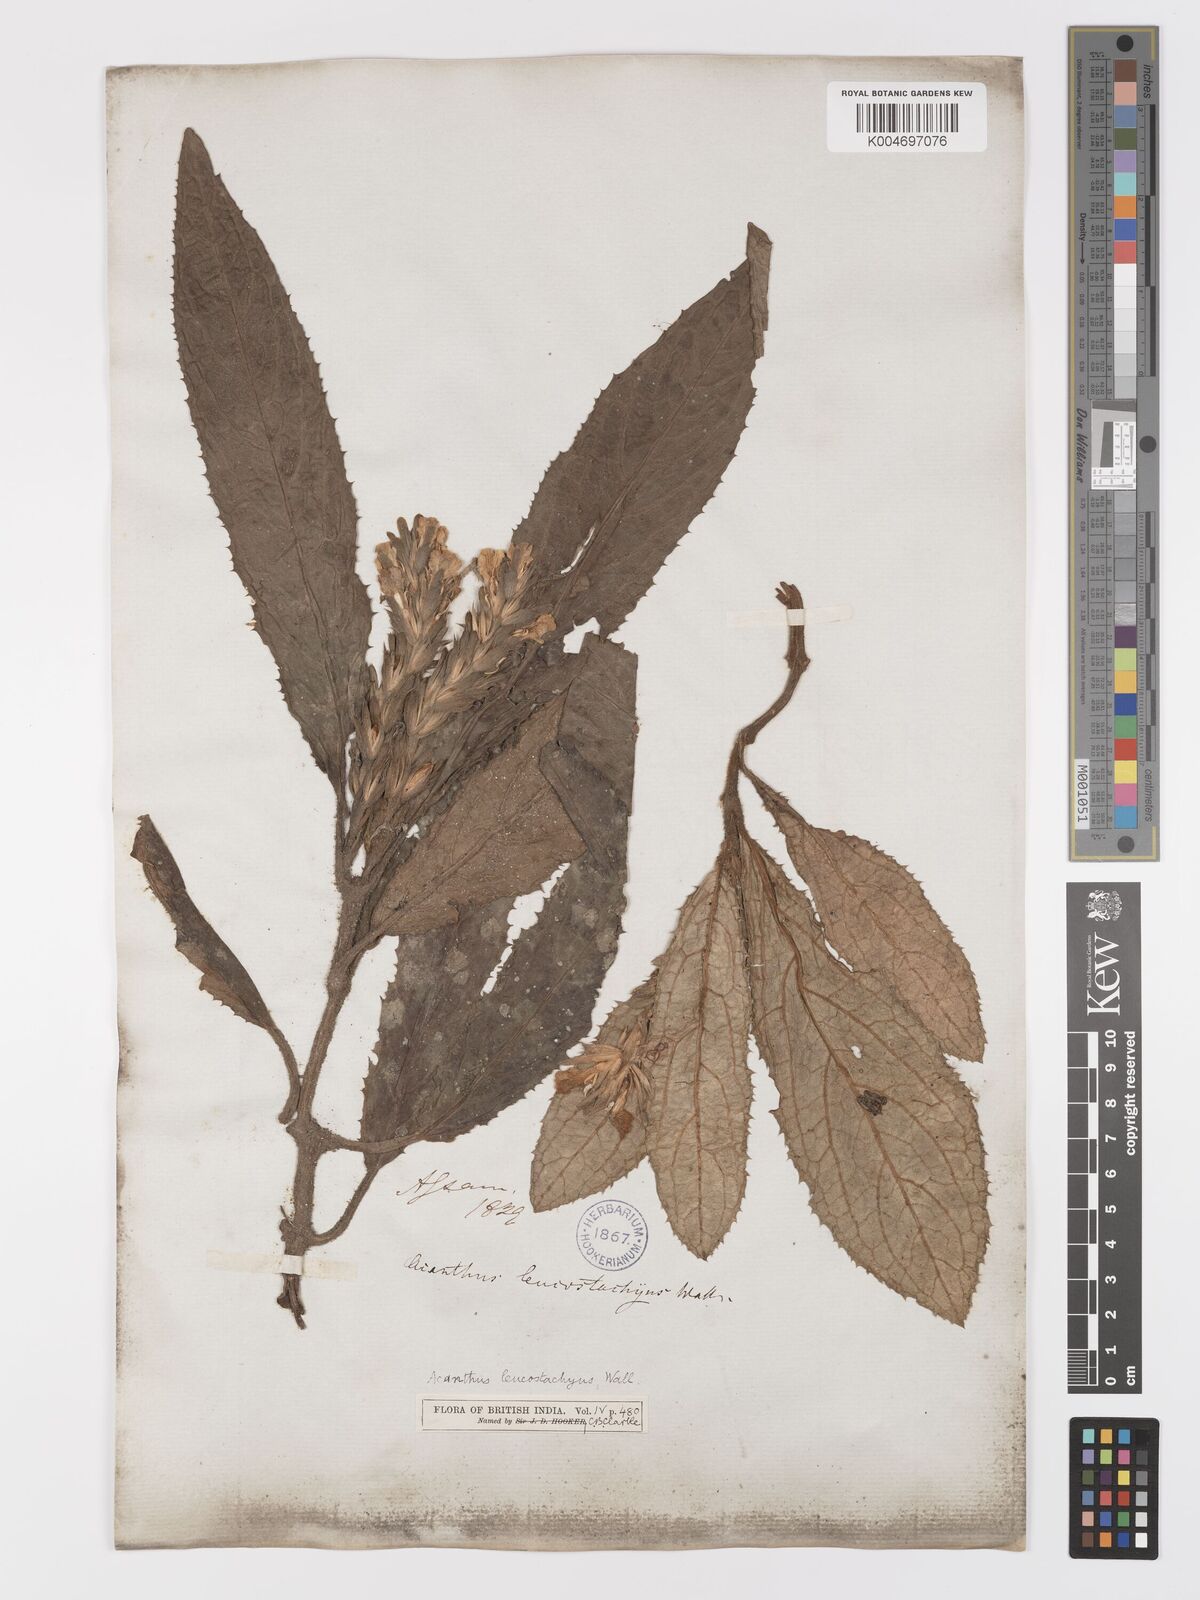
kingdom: Plantae
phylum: Tracheophyta
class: Magnoliopsida
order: Lamiales
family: Acanthaceae
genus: Acanthus
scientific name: Acanthus leucostachyus
